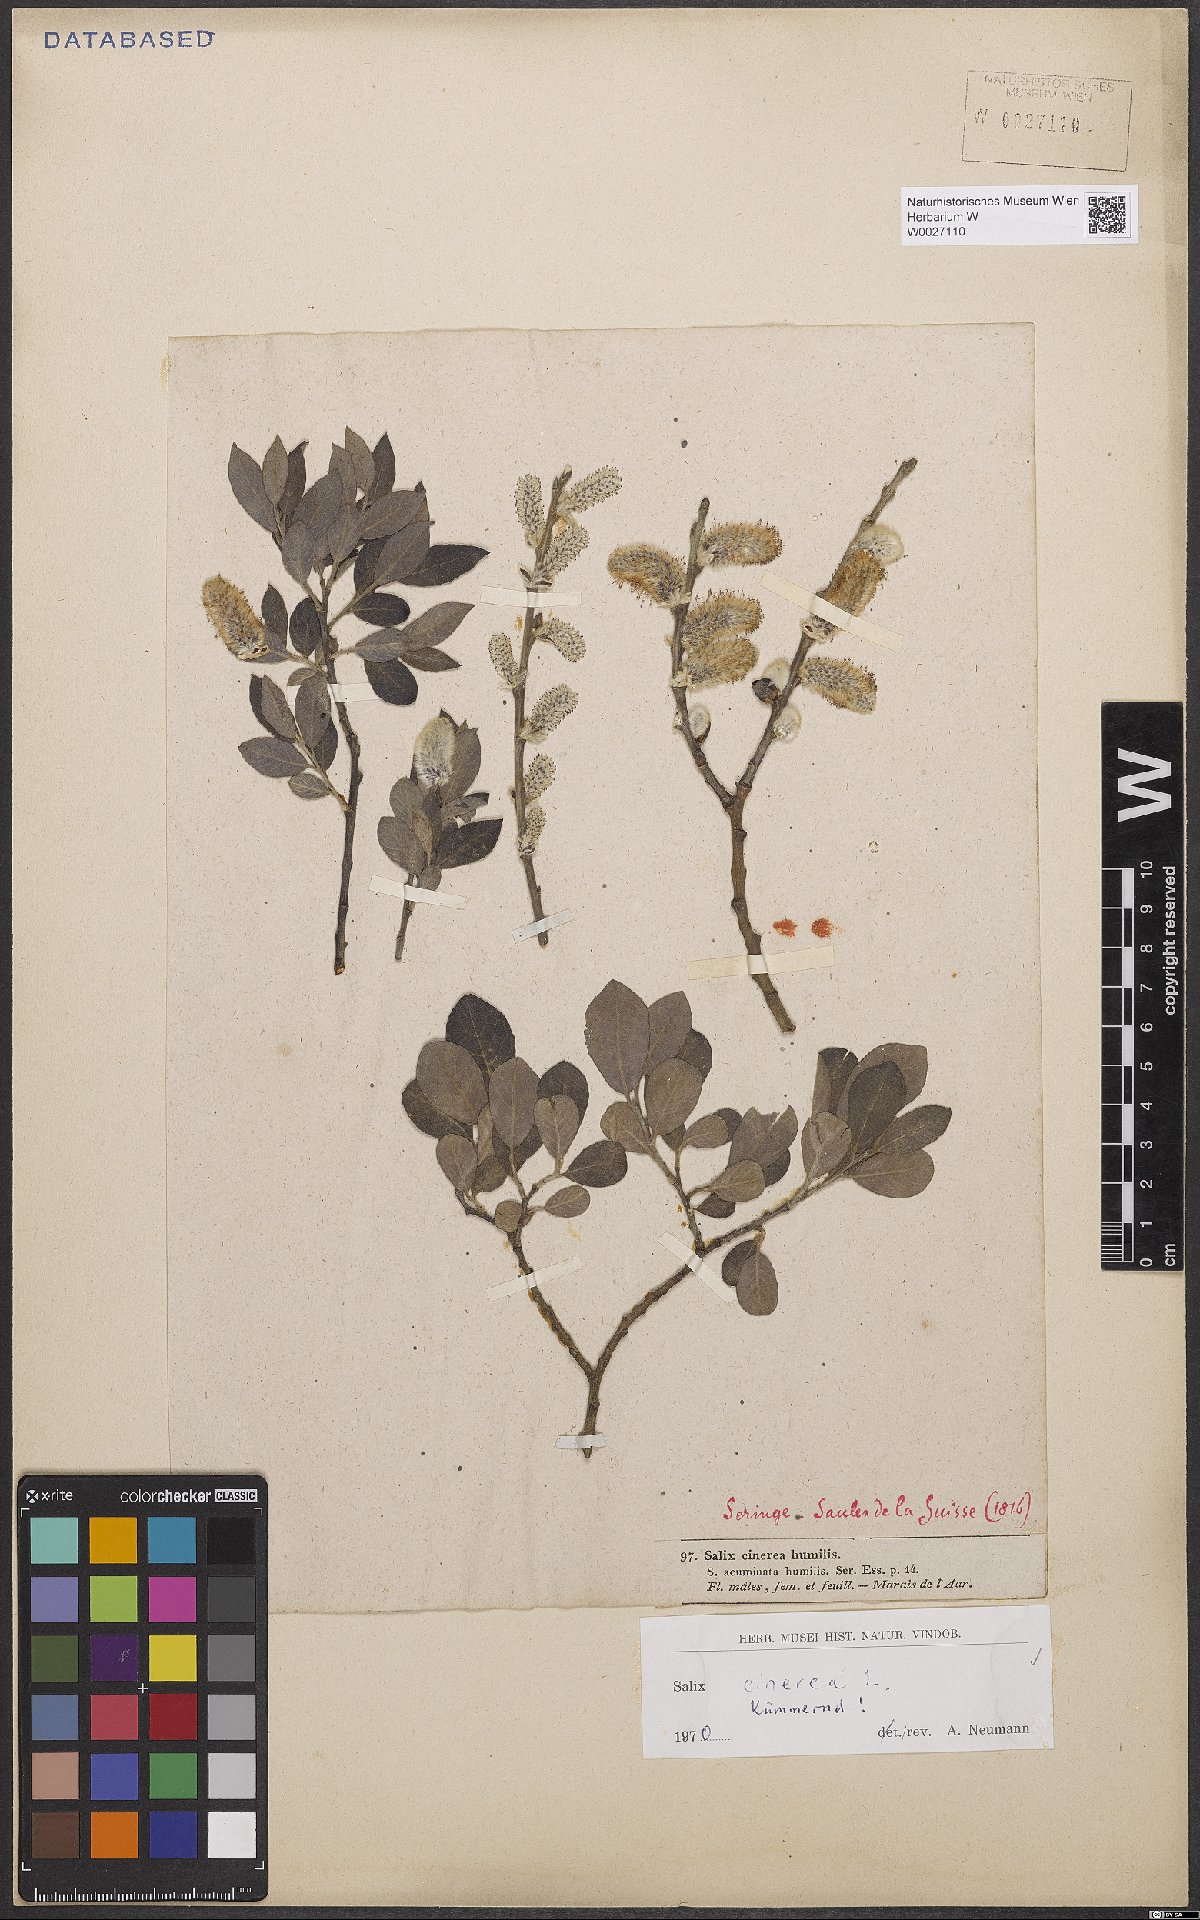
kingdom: Plantae
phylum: Tracheophyta
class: Magnoliopsida
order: Malpighiales
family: Salicaceae
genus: Salix
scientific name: Salix cinerea
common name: Common sallow
